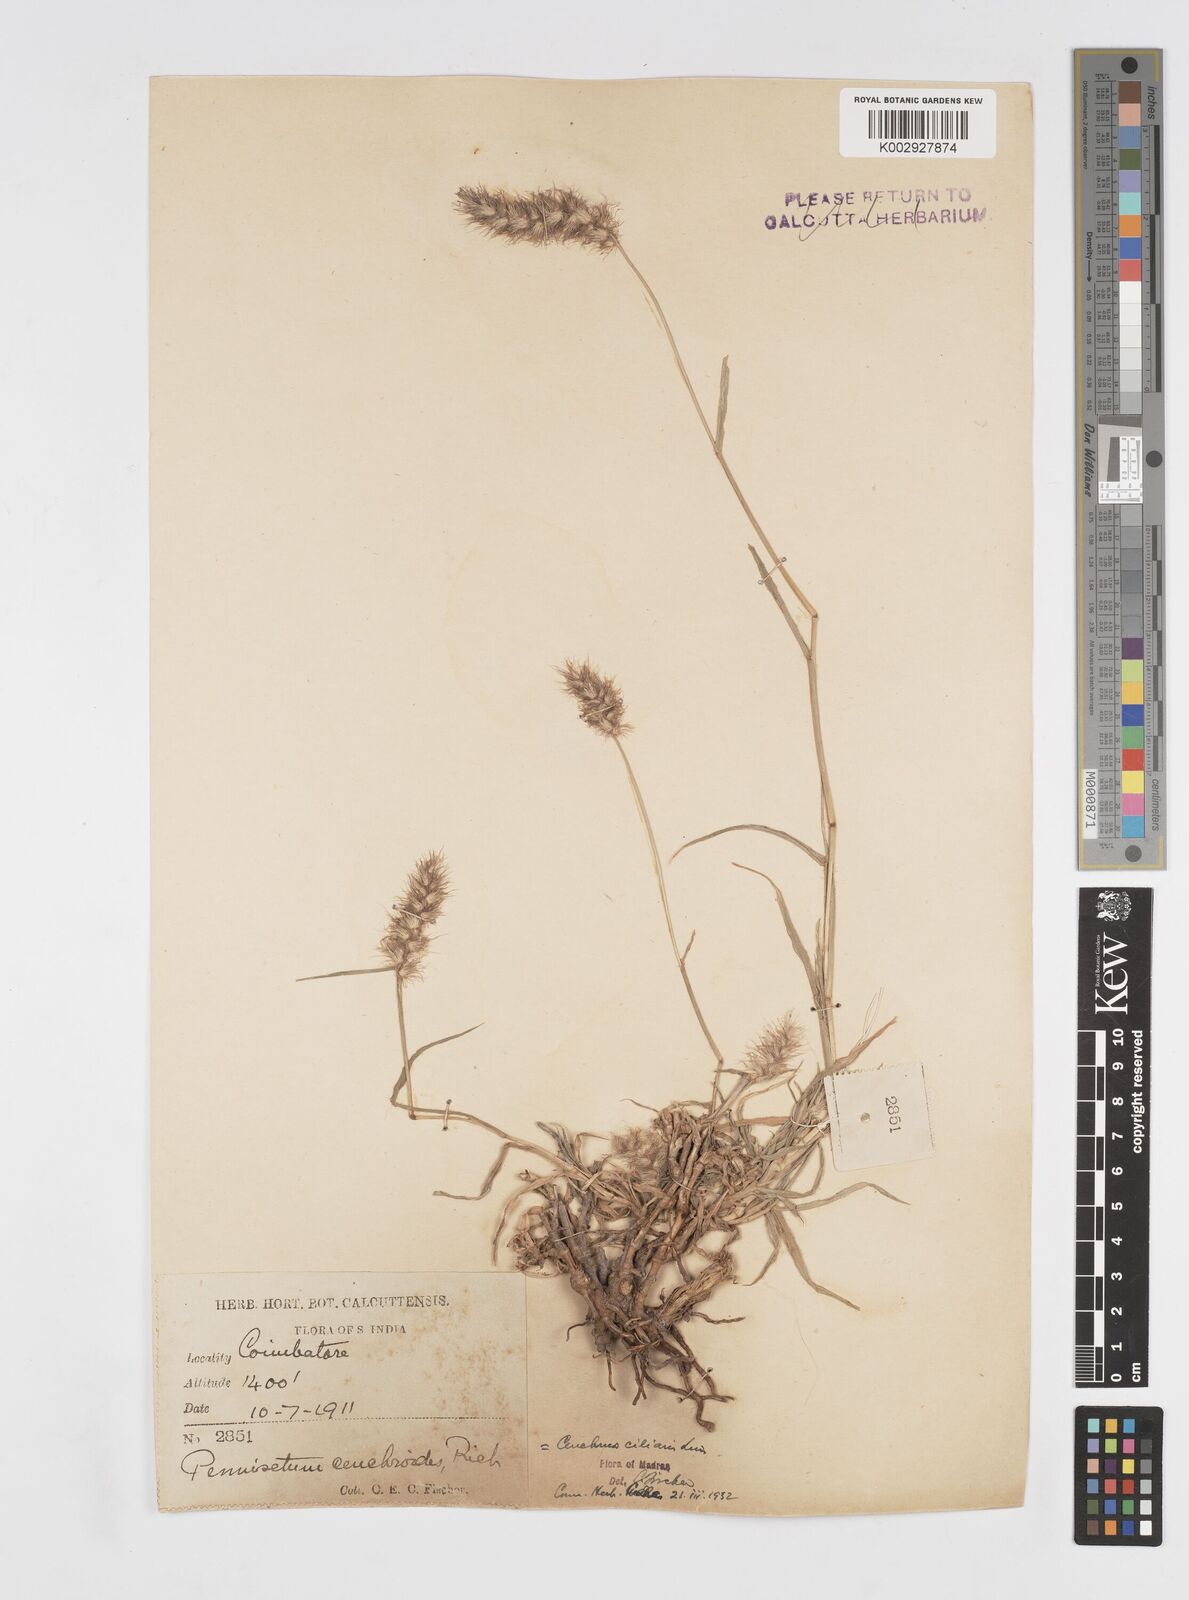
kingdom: Plantae
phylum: Tracheophyta
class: Liliopsida
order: Poales
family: Poaceae
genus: Cenchrus
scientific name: Cenchrus ciliaris
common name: Buffelgrass
